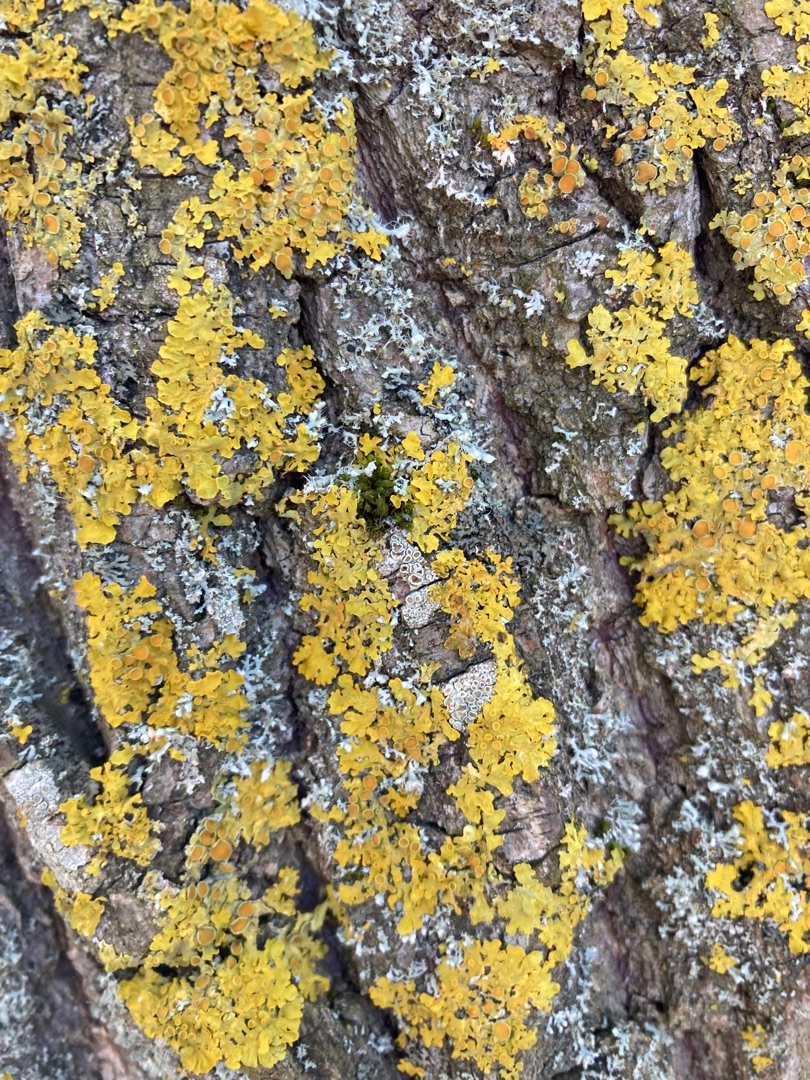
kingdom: Fungi
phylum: Ascomycota
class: Lecanoromycetes
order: Teloschistales
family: Teloschistaceae
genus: Xanthoria
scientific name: Xanthoria parietina
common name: Almindelig væggelav
